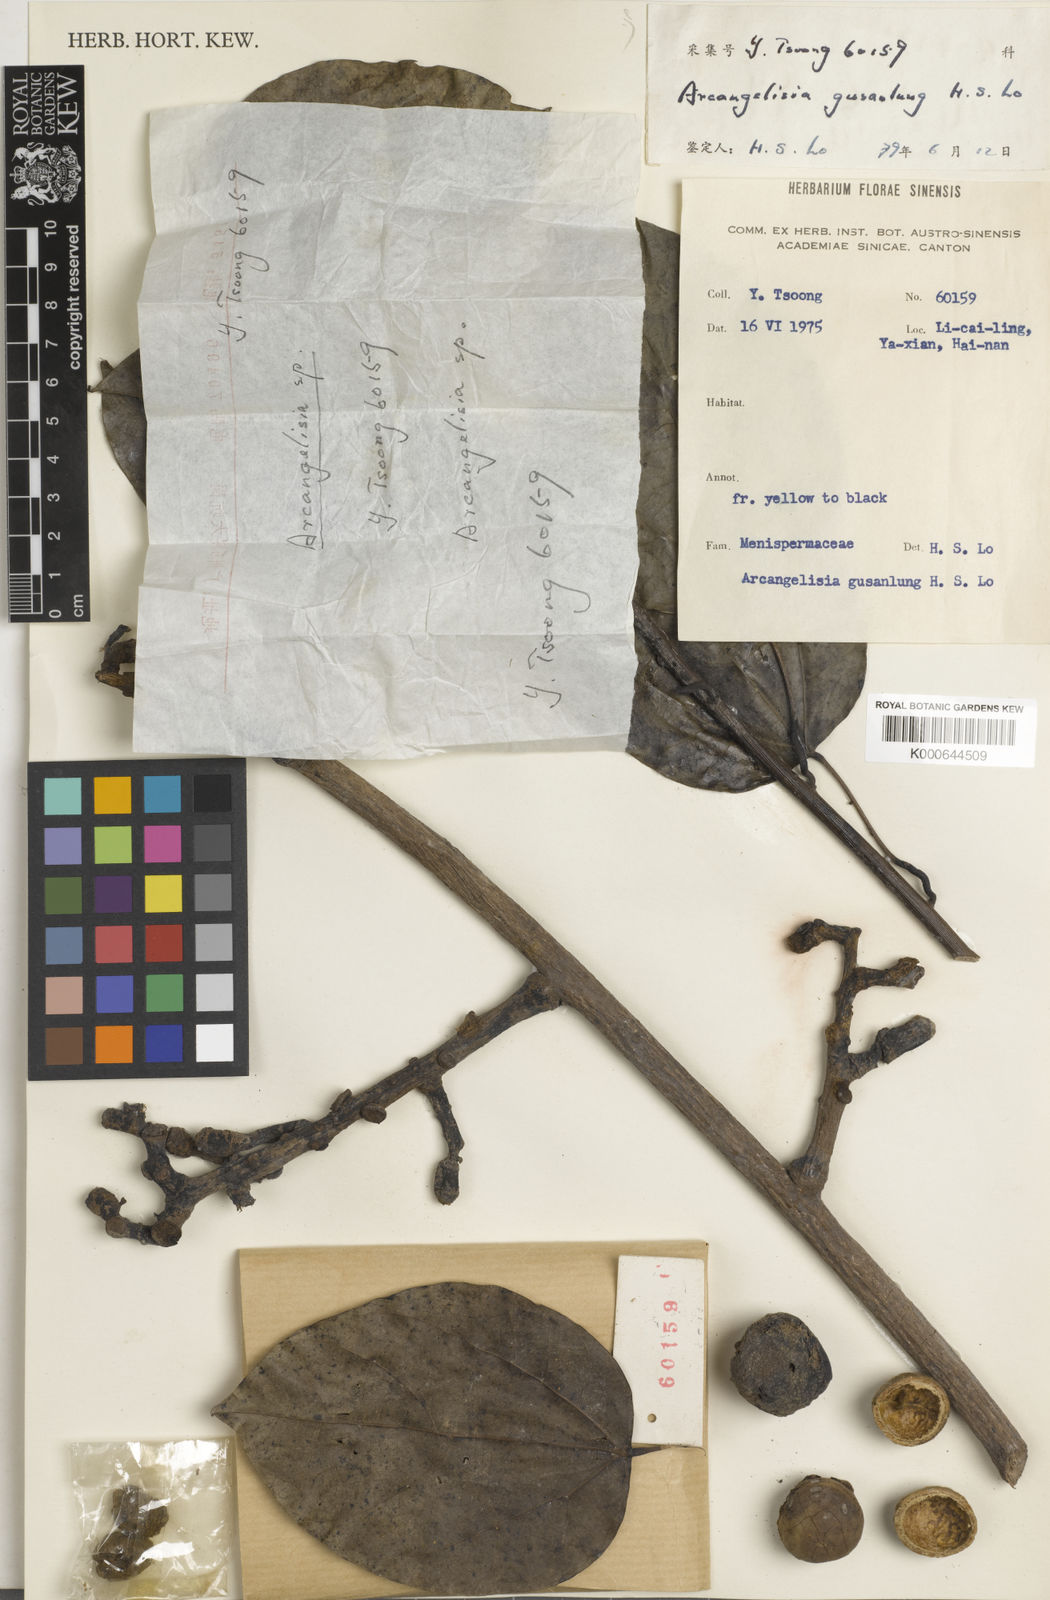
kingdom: Plantae
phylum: Tracheophyta
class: Magnoliopsida
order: Ranunculales
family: Menispermaceae
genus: Arcangelisia
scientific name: Arcangelisia gusanlung
